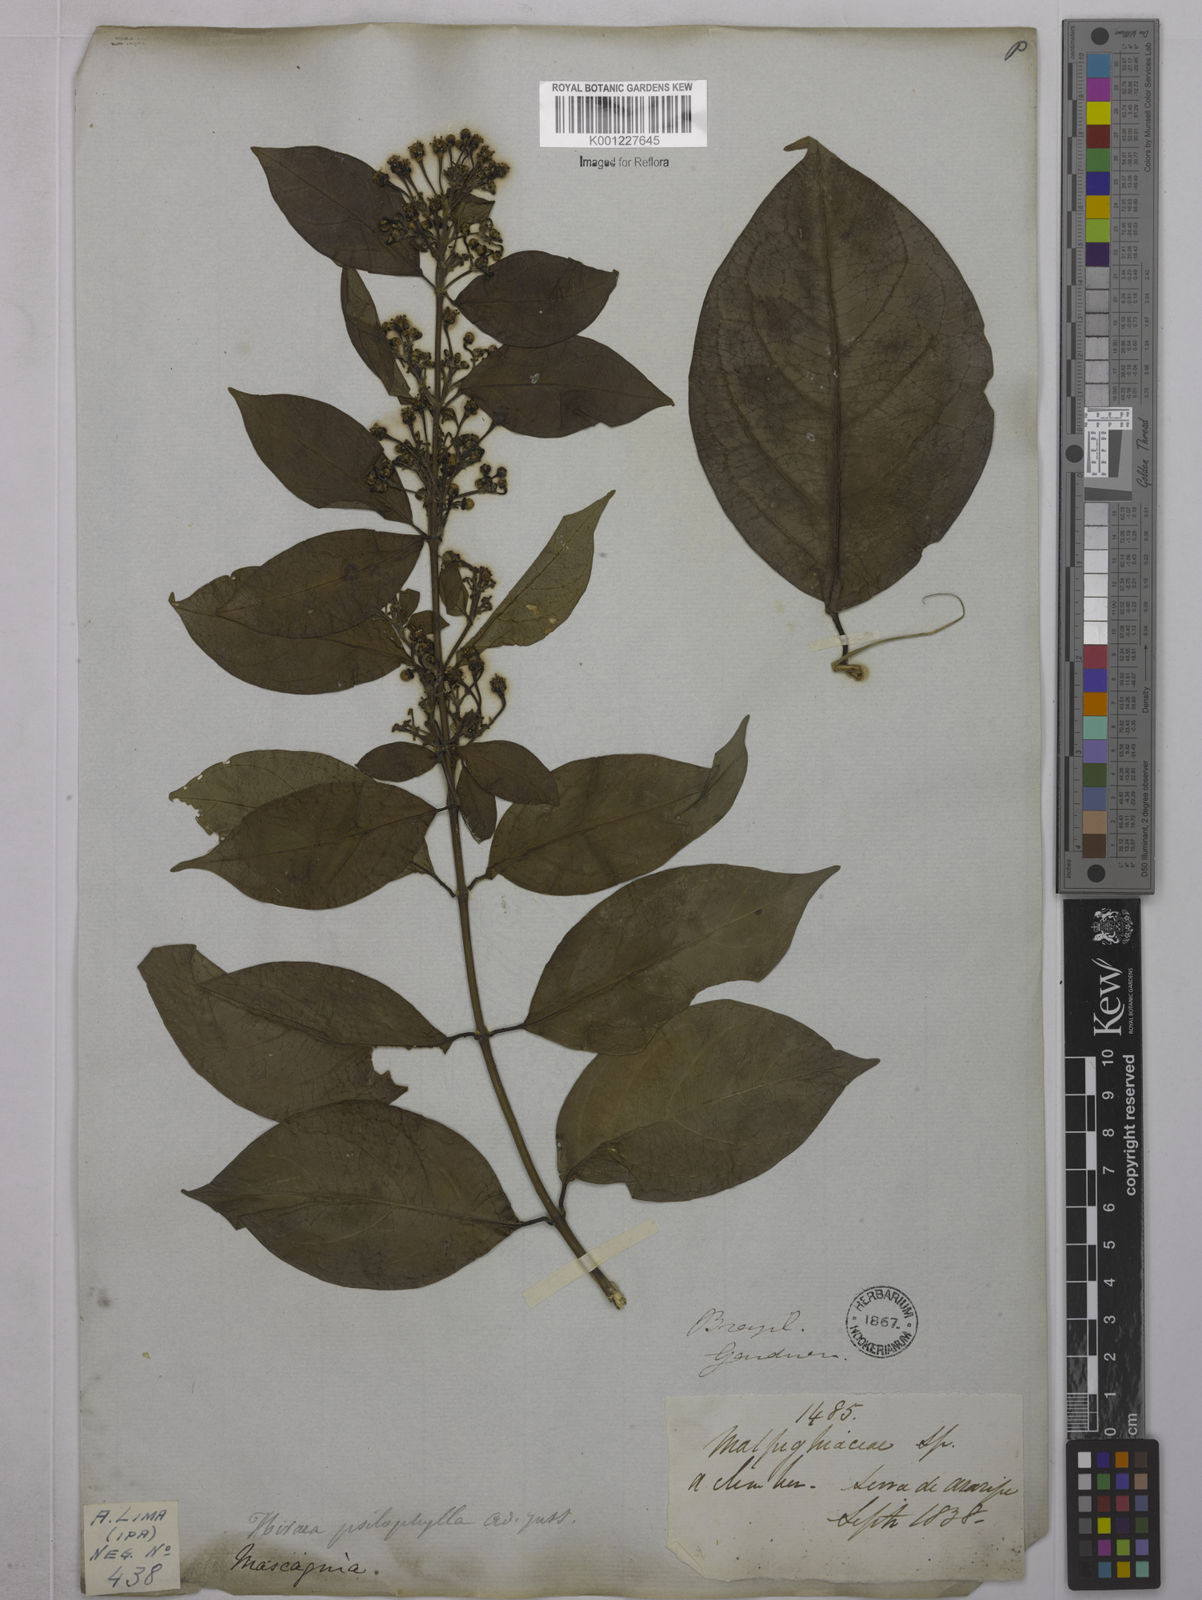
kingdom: Plantae
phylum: Tracheophyta
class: Magnoliopsida
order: Malpighiales
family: Malpighiaceae
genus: Callaeum
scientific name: Callaeum psilophyllum
